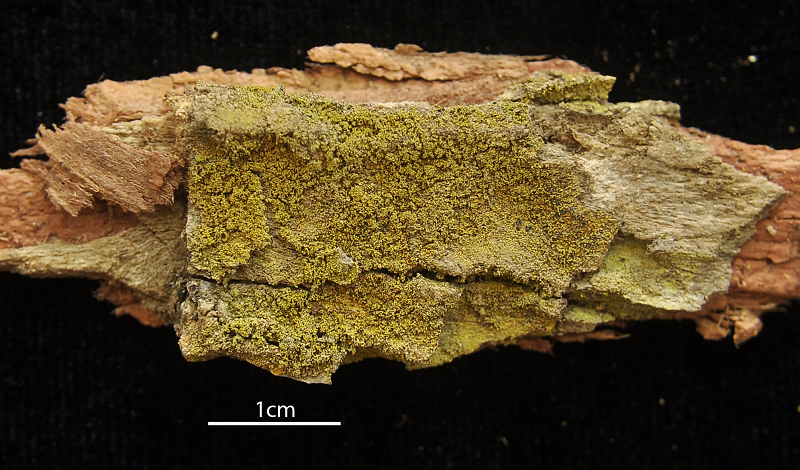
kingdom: Fungi
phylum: Ascomycota
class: Lecanoromycetes
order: Teloschistales
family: Letrouitiaceae
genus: Letrouitia
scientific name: Letrouitia leprolyta
